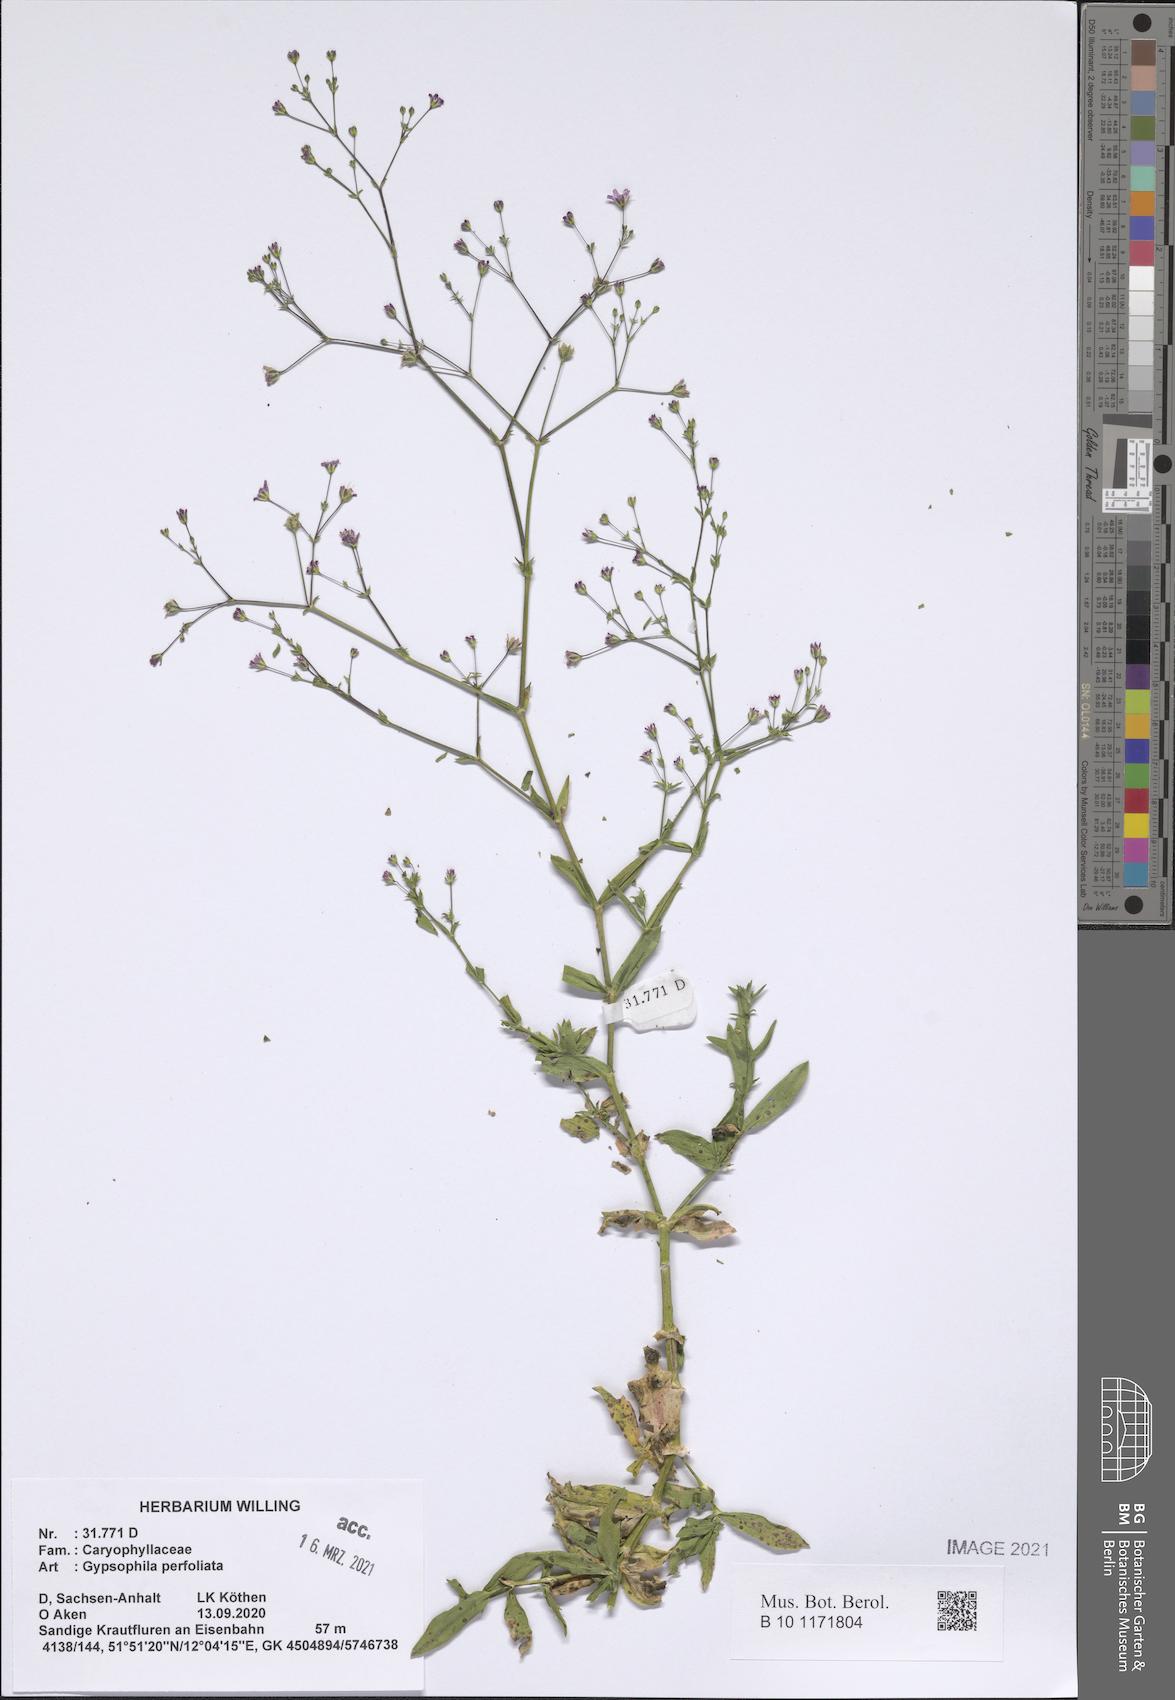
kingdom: Plantae
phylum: Tracheophyta
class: Magnoliopsida
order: Caryophyllales
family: Caryophyllaceae
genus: Gypsophila
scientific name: Gypsophila perfoliata
